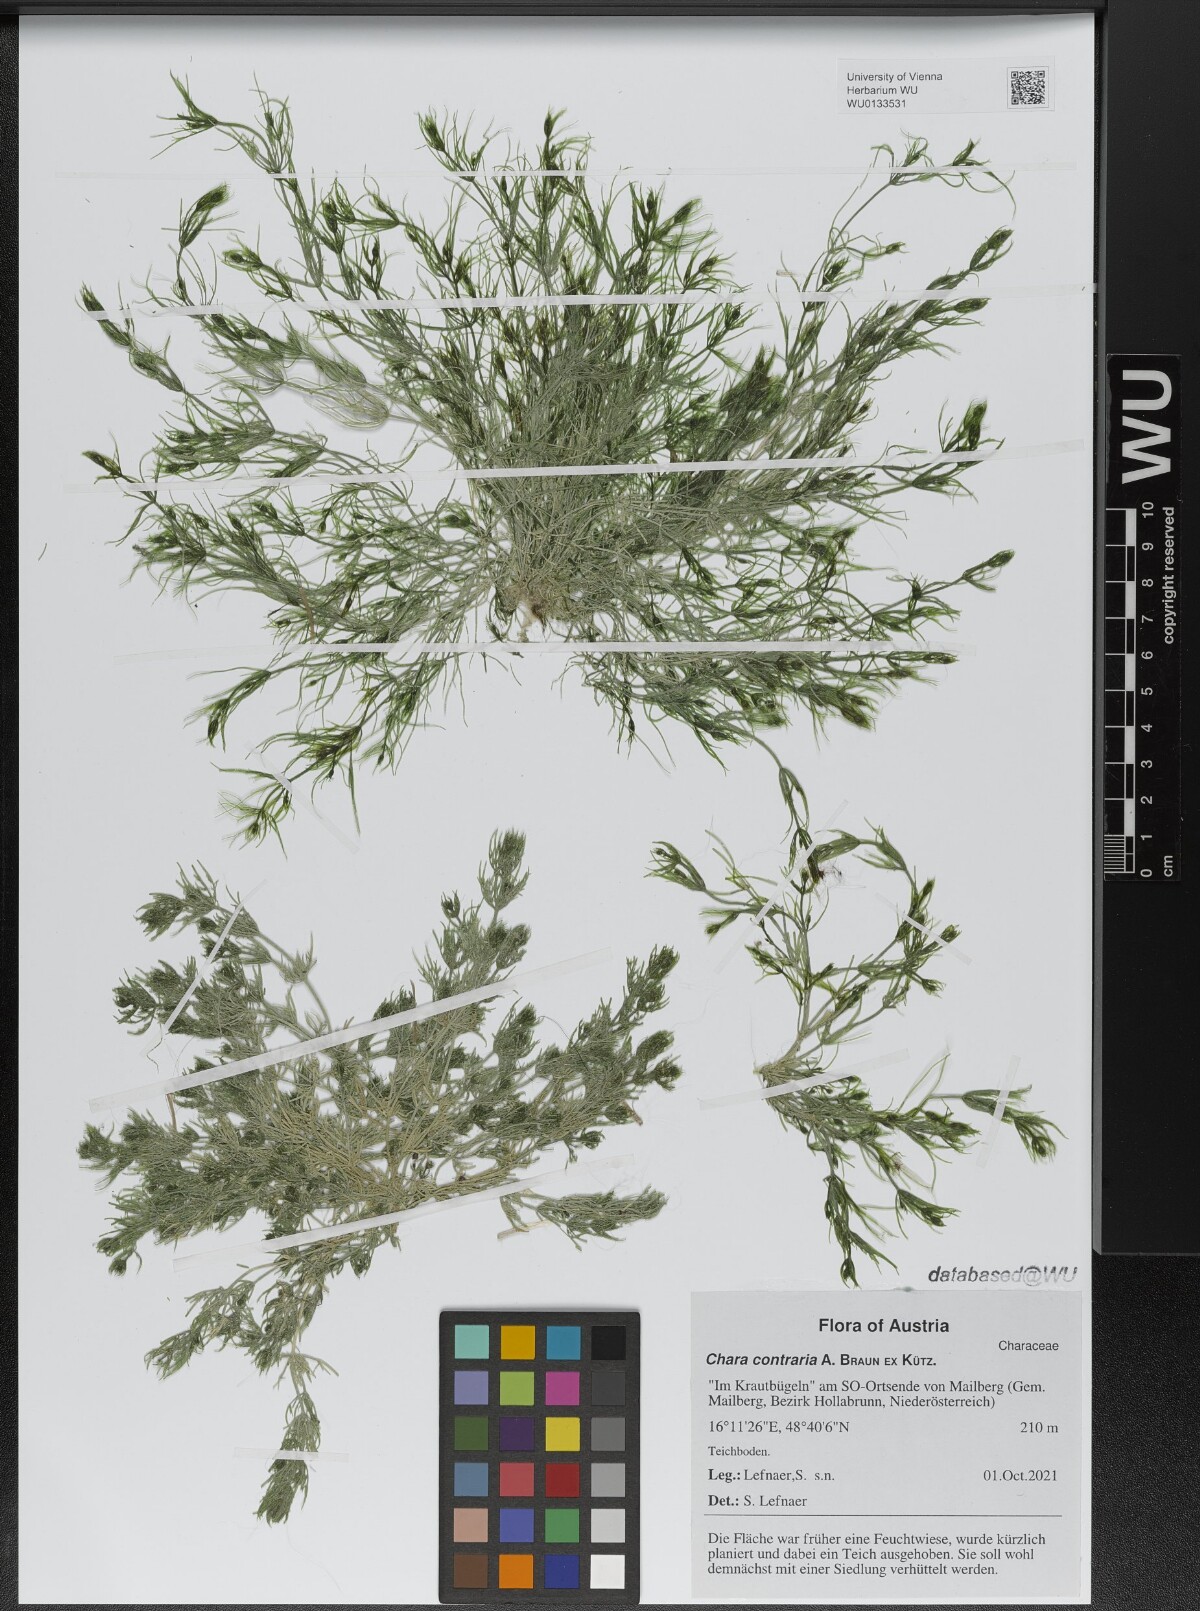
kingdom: Plantae
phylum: Charophyta
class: Charophyceae
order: Charales
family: Characeae
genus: Chara
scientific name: Chara contraria
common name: Opposite stonewort
